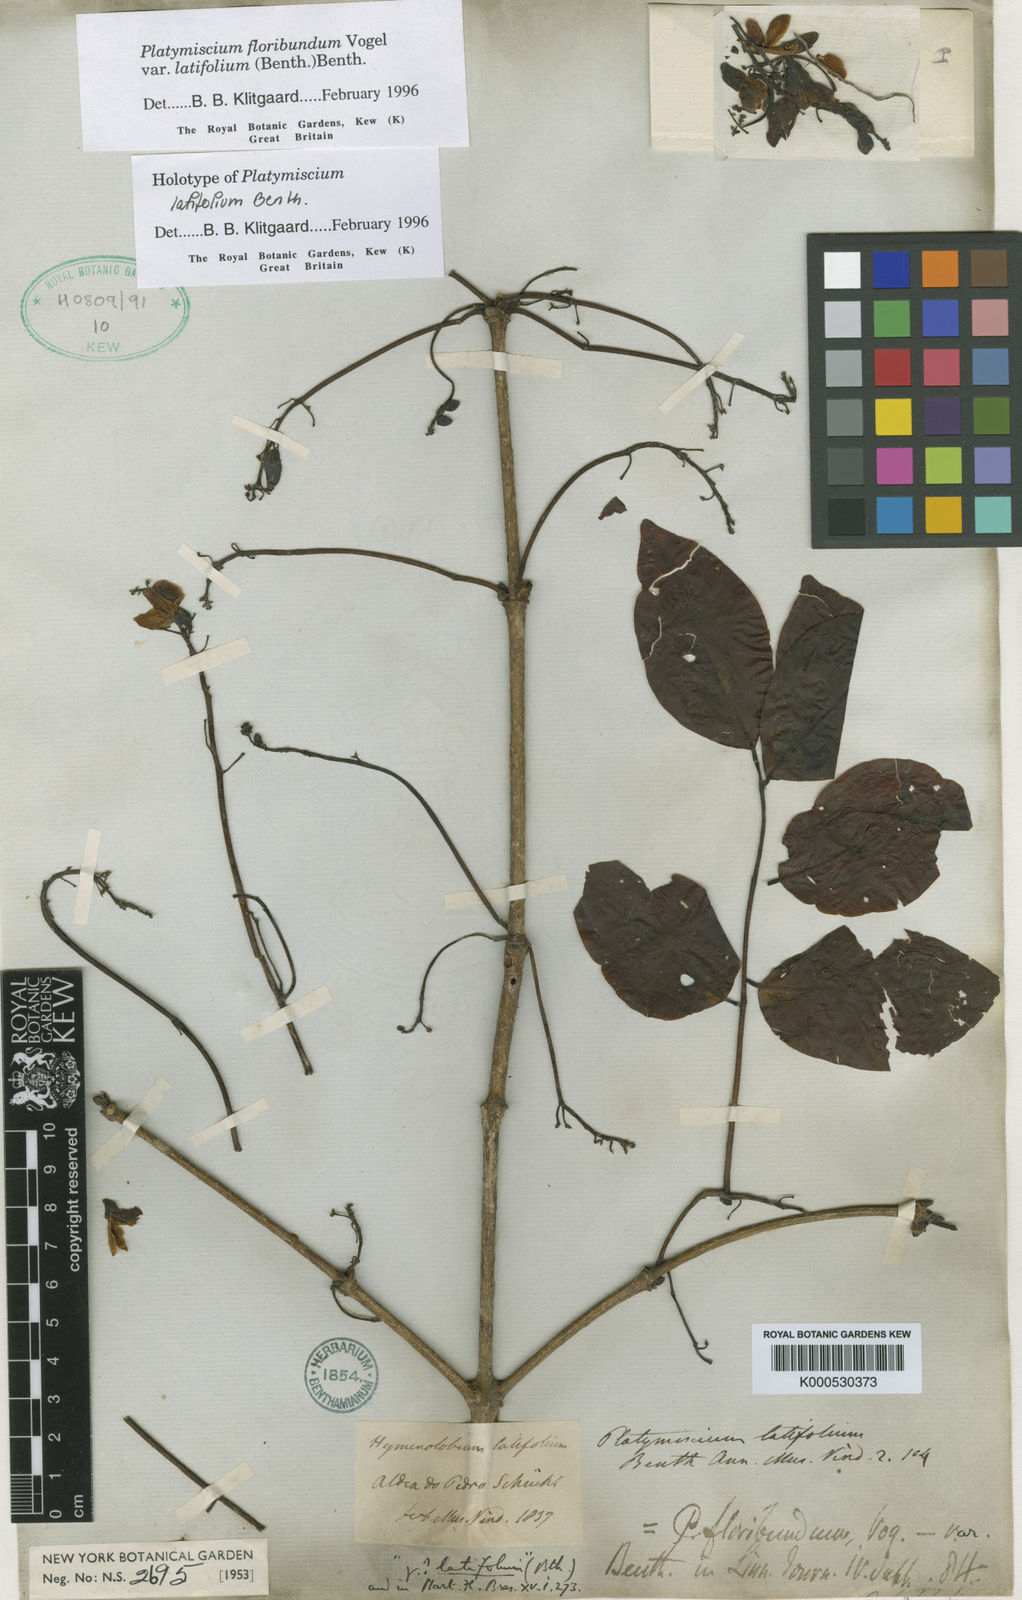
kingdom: Plantae
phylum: Tracheophyta
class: Magnoliopsida
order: Fabales
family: Fabaceae
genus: Platymiscium
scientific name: Platymiscium floribundum
